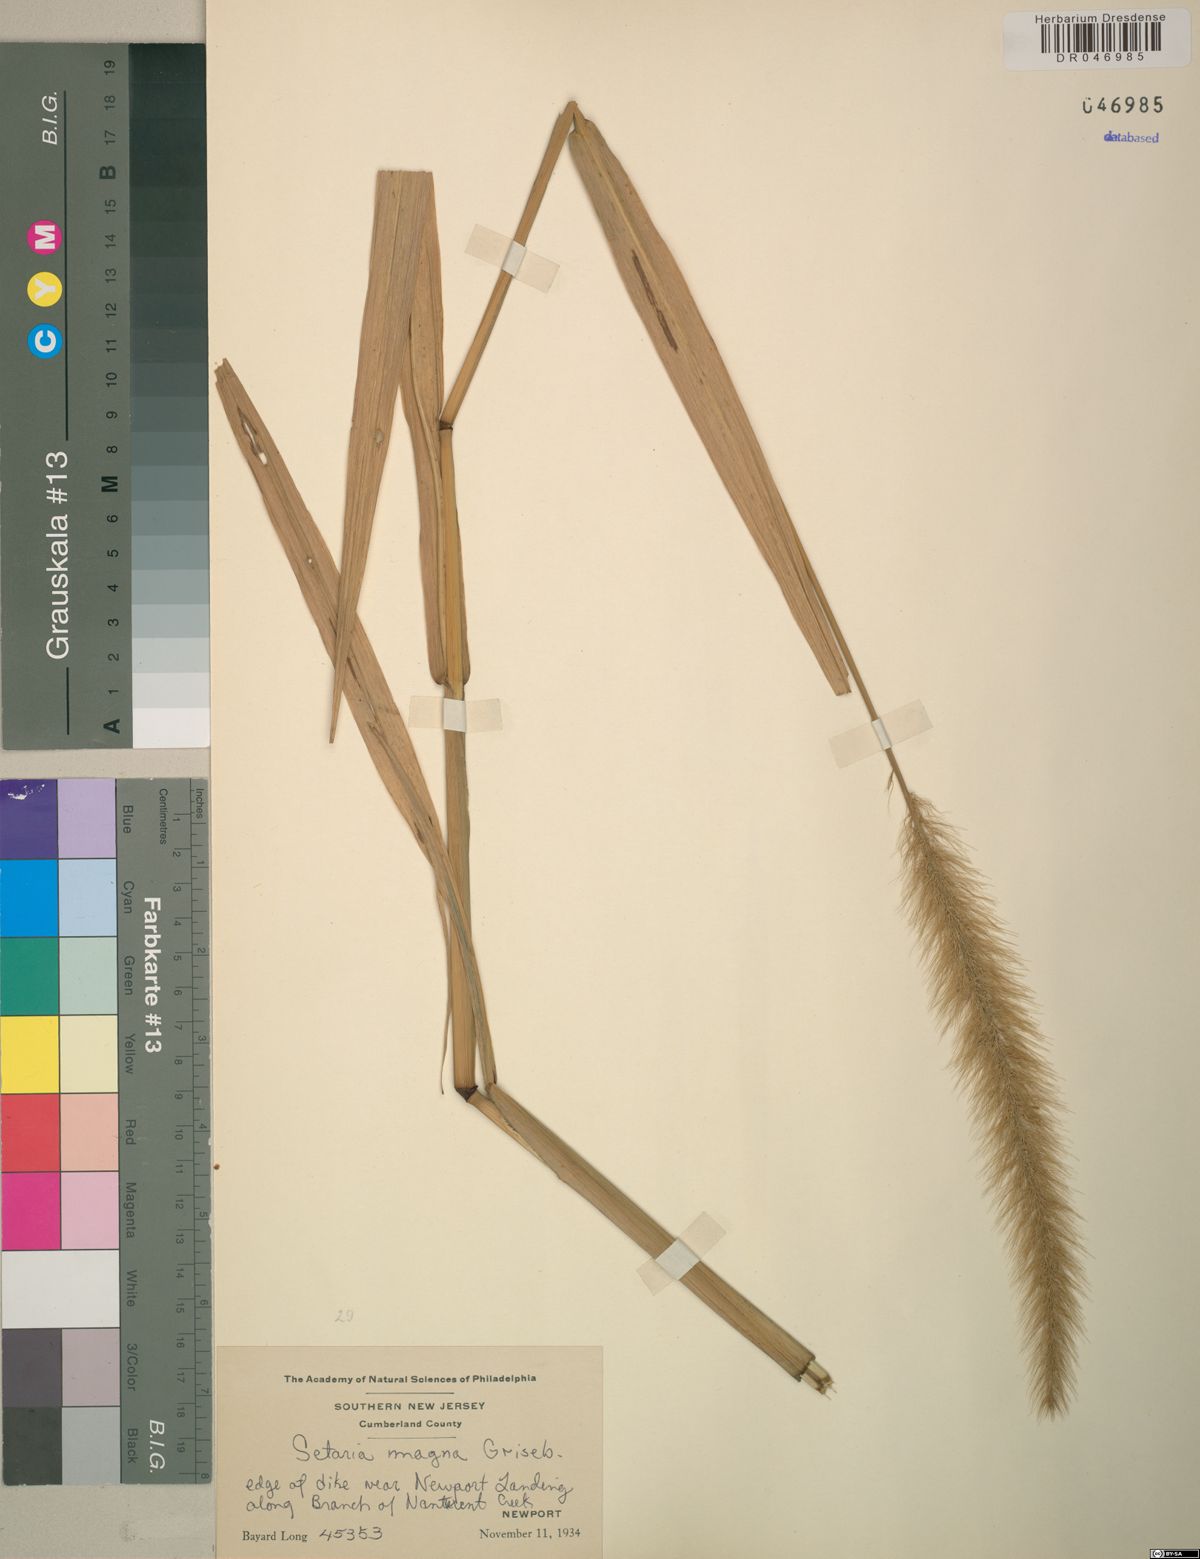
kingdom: Plantae
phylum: Tracheophyta
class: Liliopsida
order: Poales
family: Poaceae
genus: Setaria
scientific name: Setaria magna
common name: Giant bristle grass
